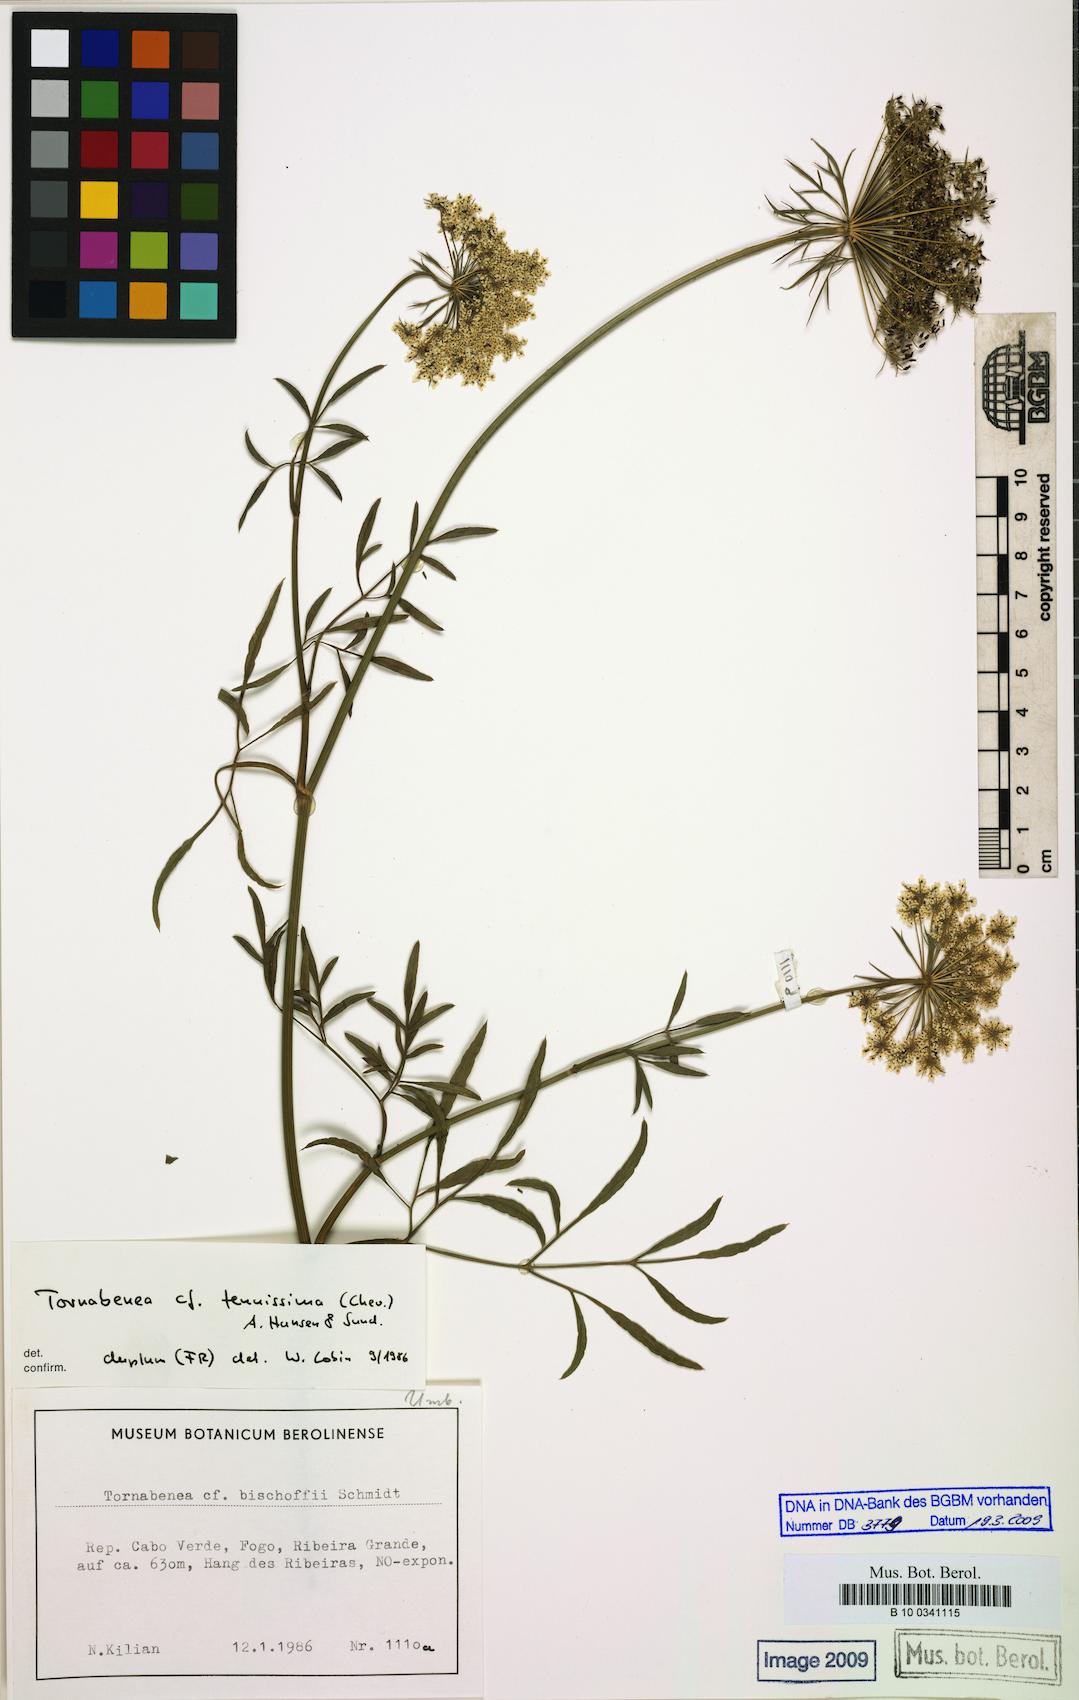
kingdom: Plantae
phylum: Tracheophyta
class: Magnoliopsida
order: Apiales
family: Apiaceae
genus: Daucus
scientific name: Daucus
